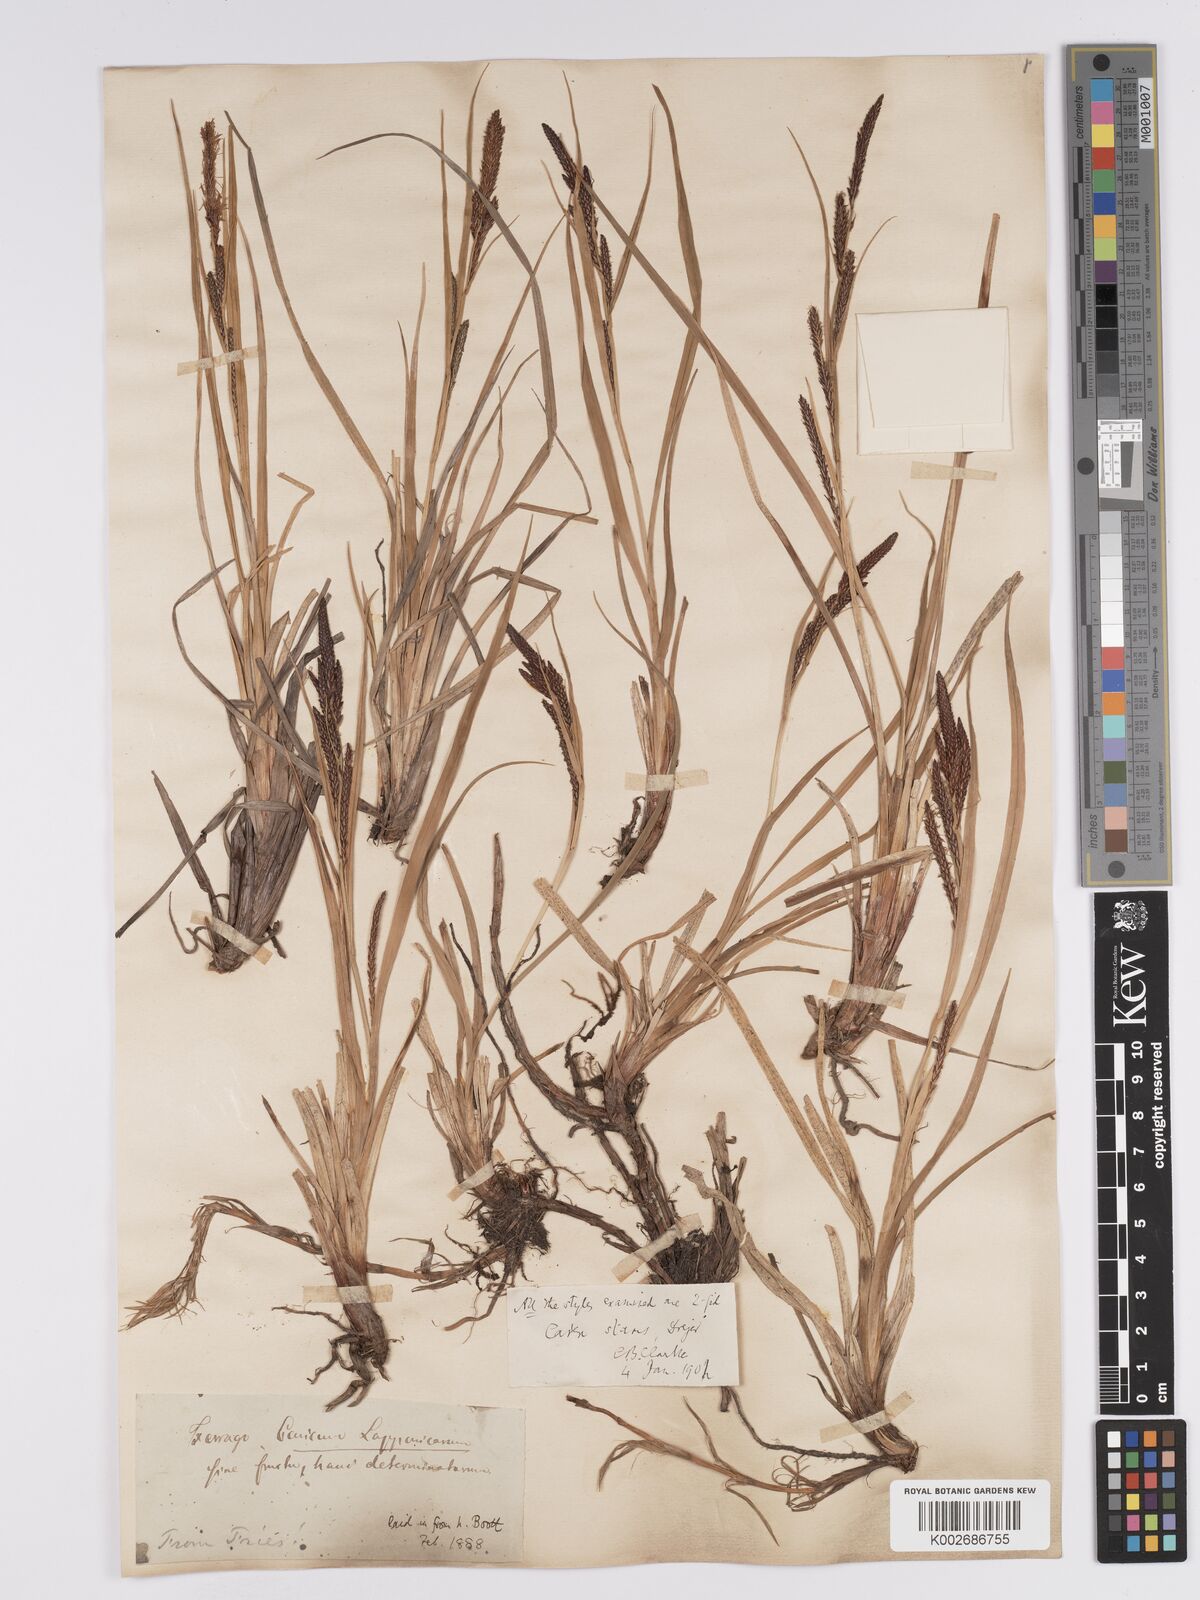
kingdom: Plantae
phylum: Tracheophyta
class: Liliopsida
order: Poales
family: Cyperaceae
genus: Carex
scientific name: Carex aquatilis
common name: Water sedge
